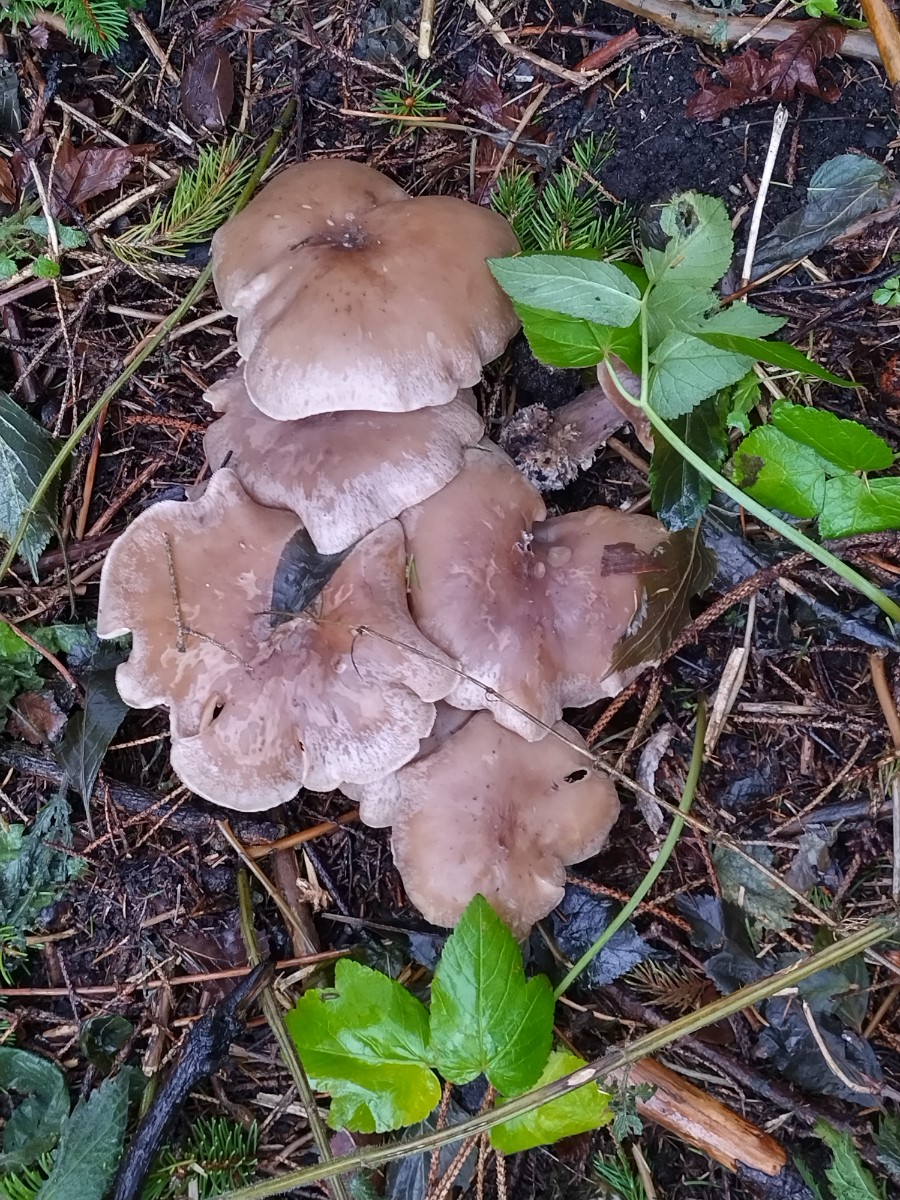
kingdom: Fungi
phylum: Basidiomycota
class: Agaricomycetes
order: Agaricales
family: Tricholomataceae
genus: Clitocybe
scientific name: Clitocybe nebularis
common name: tåge-tragthat
